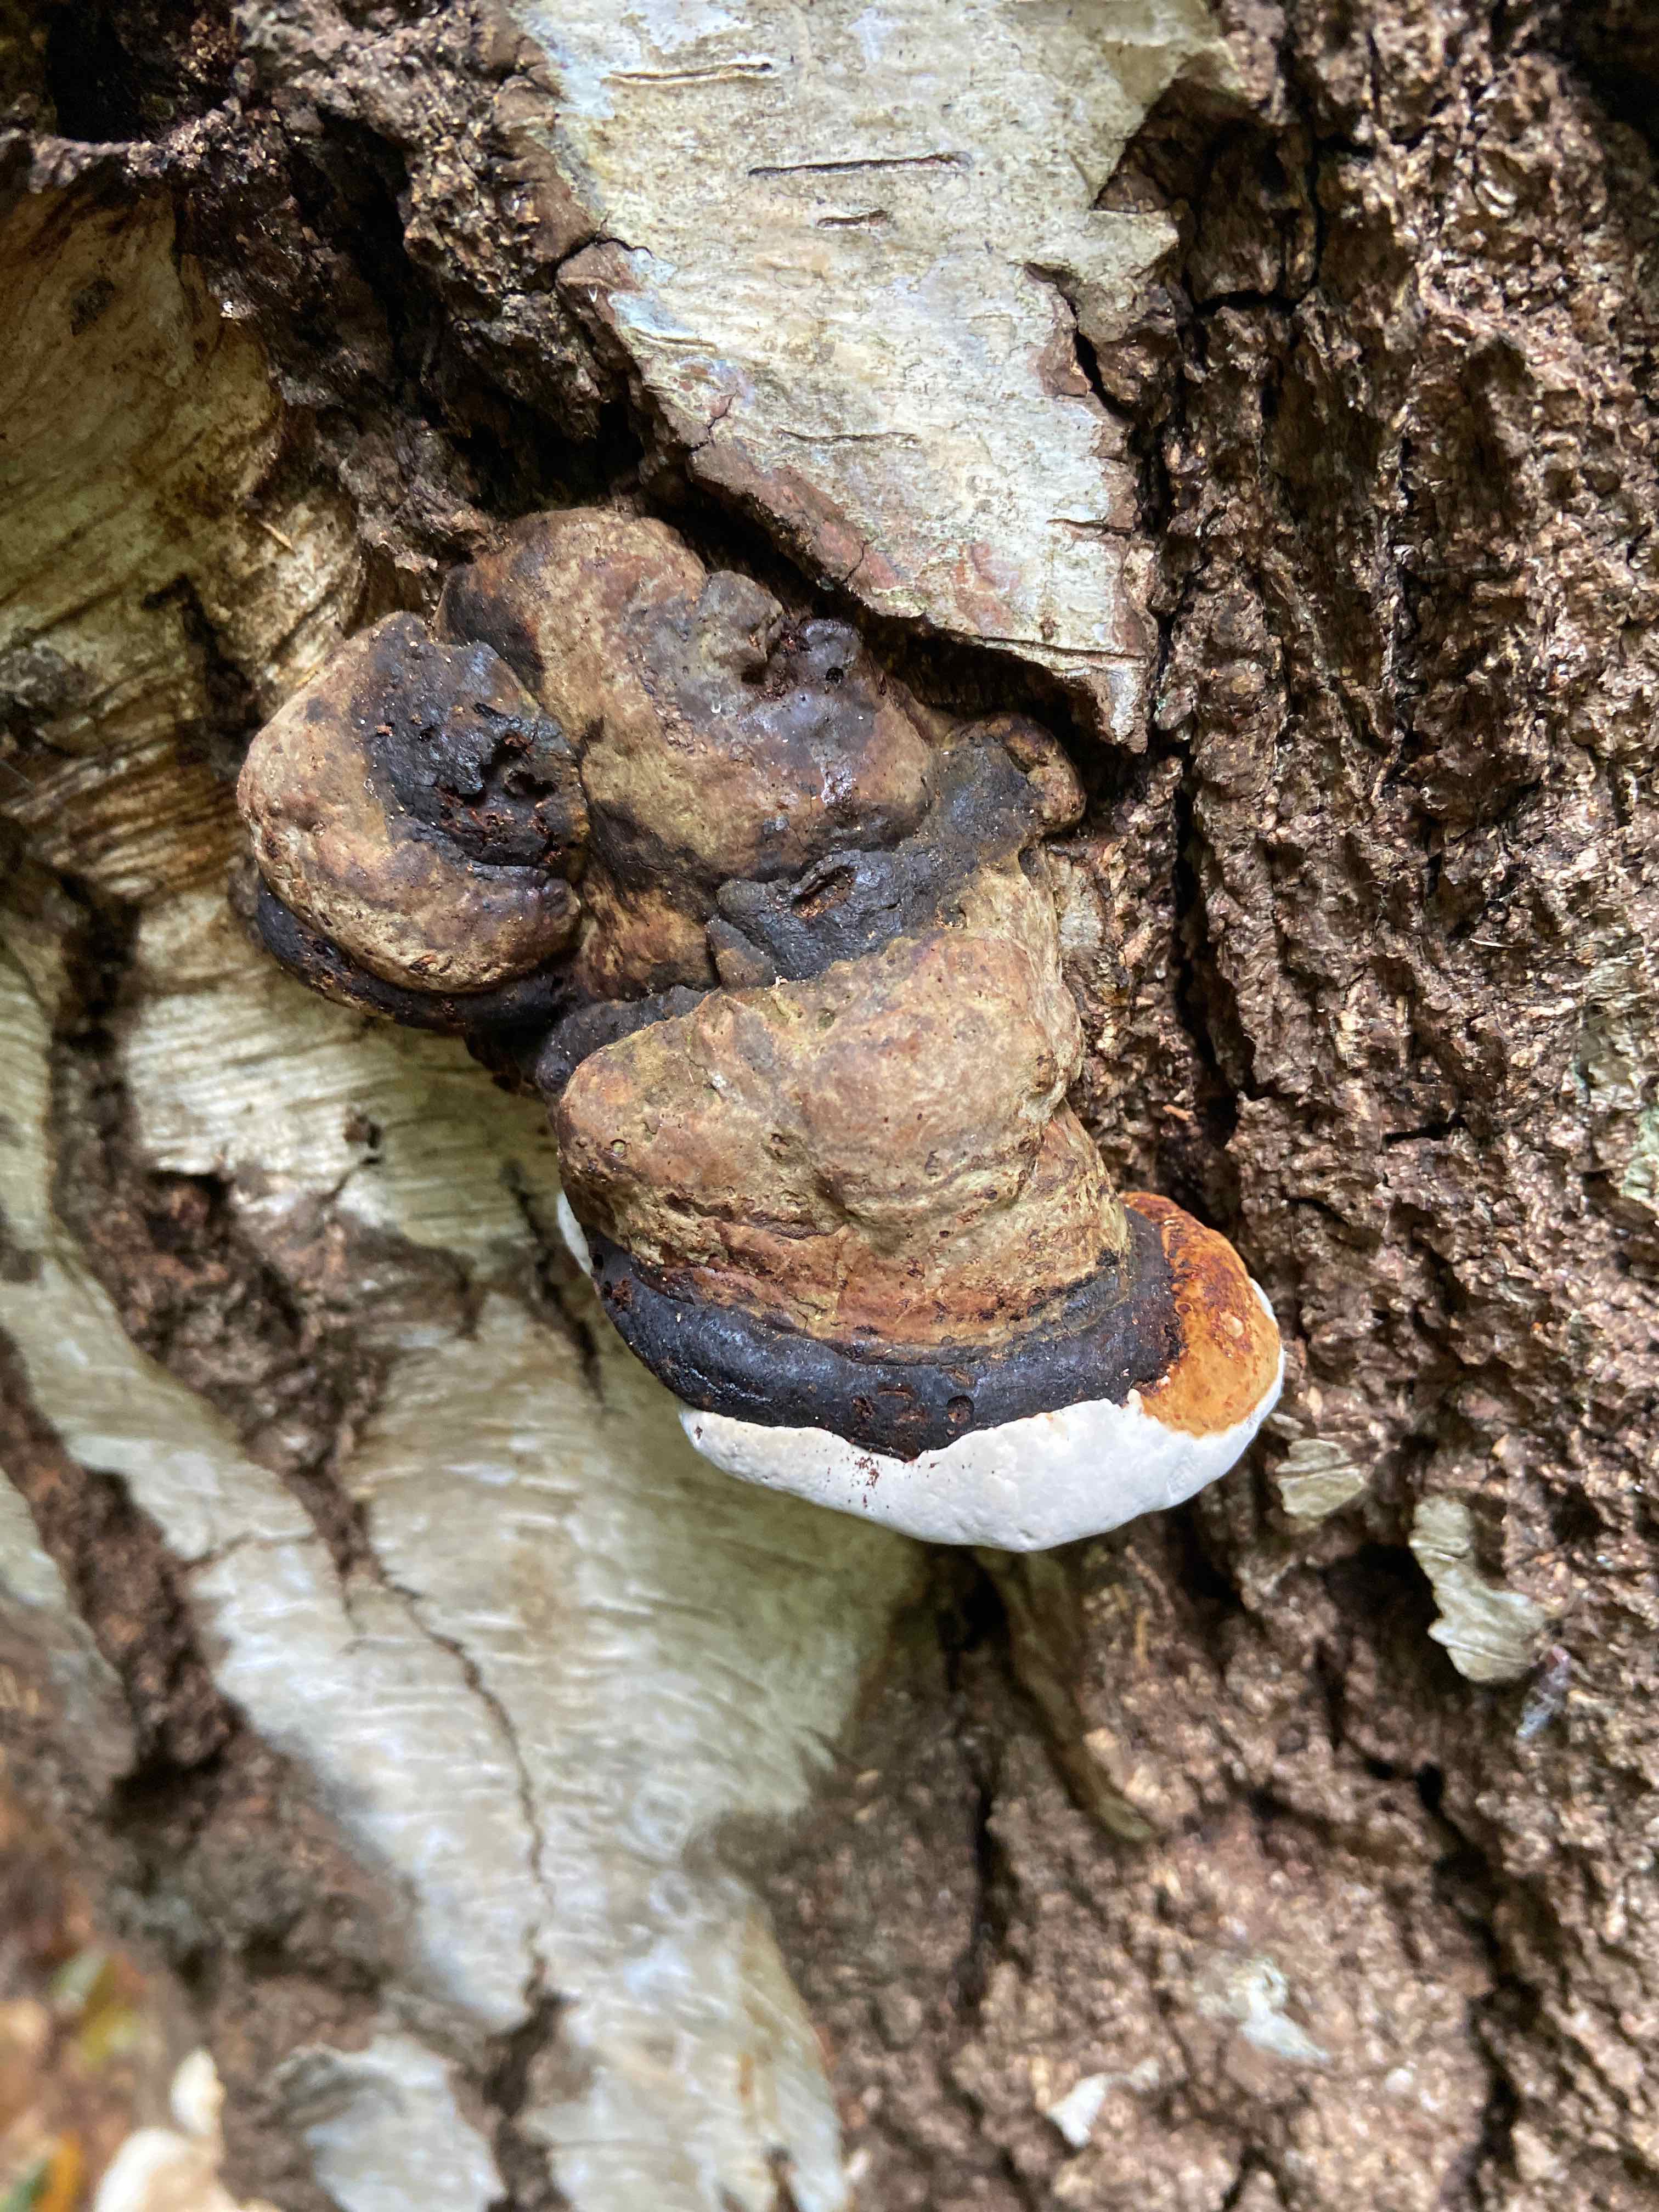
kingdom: Fungi
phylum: Basidiomycota
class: Agaricomycetes
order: Polyporales
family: Polyporaceae
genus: Fomes
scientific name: Fomes fomentarius
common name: tøndersvamp
